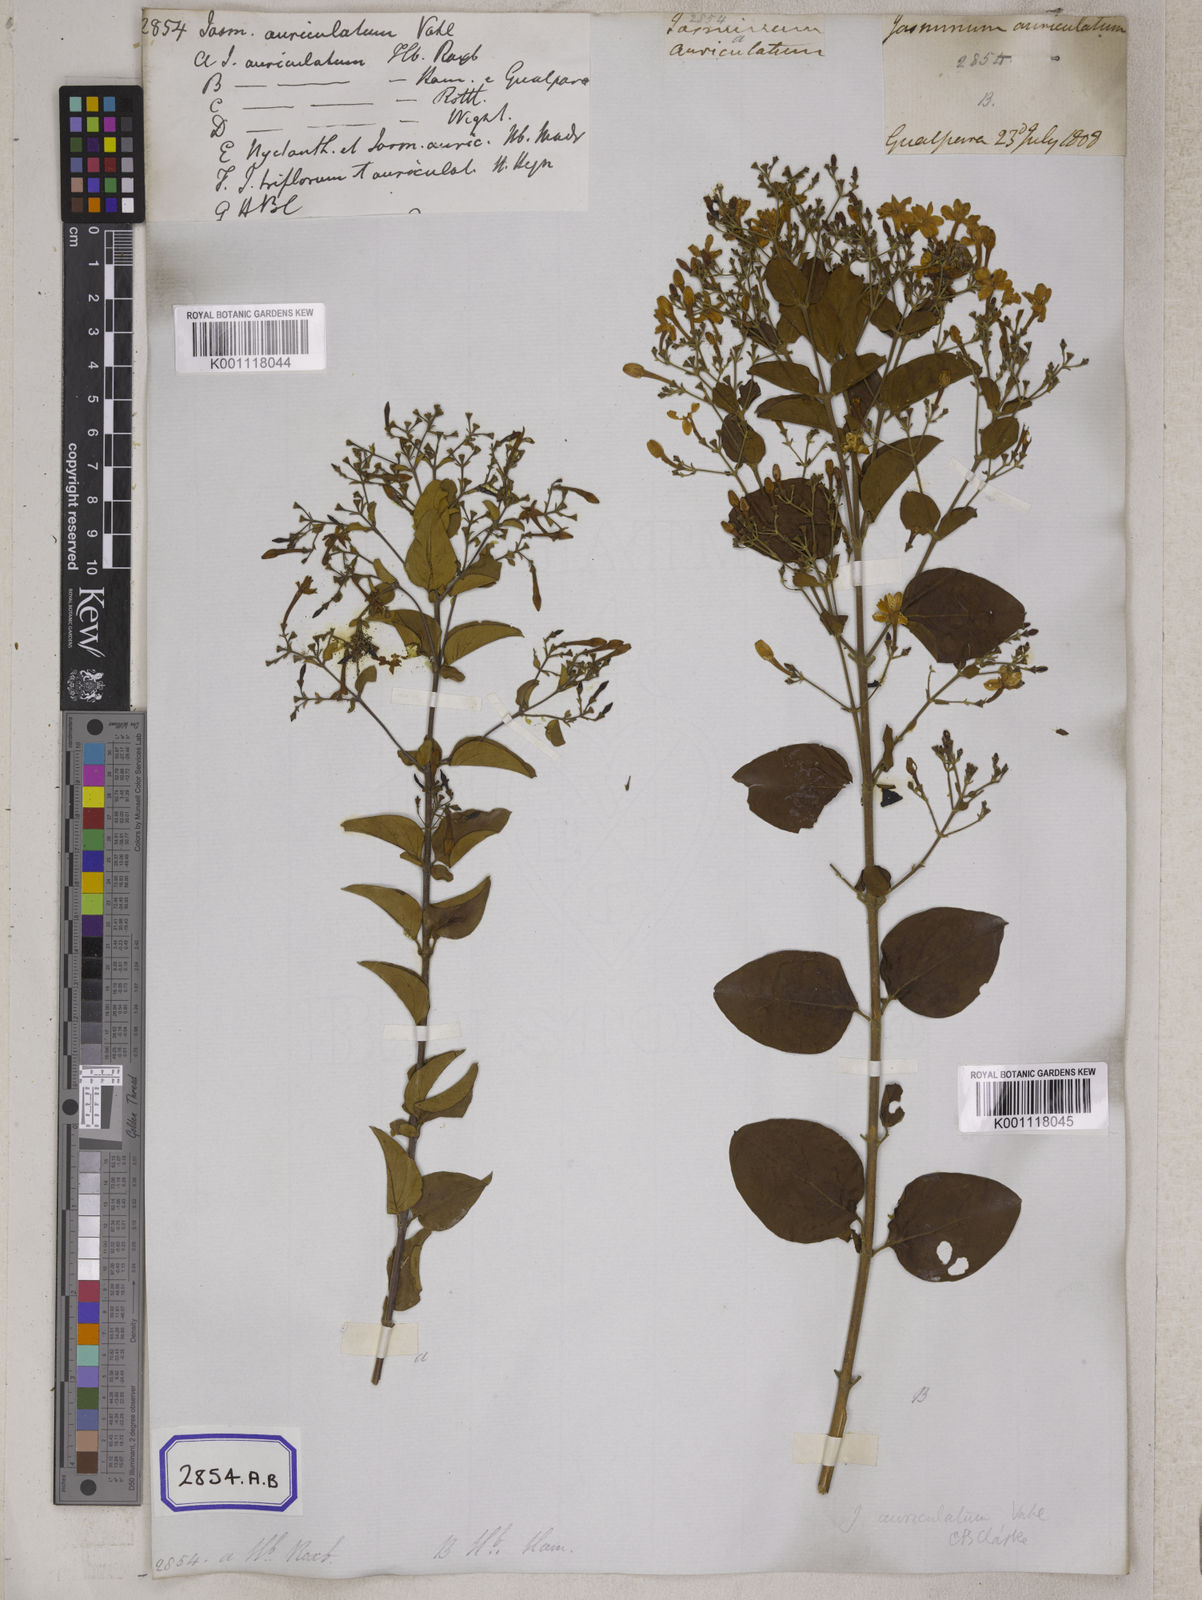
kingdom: Plantae
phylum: Tracheophyta
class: Magnoliopsida
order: Lamiales
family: Oleaceae
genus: Jasminum
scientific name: Jasminum auriculatum
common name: Needle-flower jasmine
